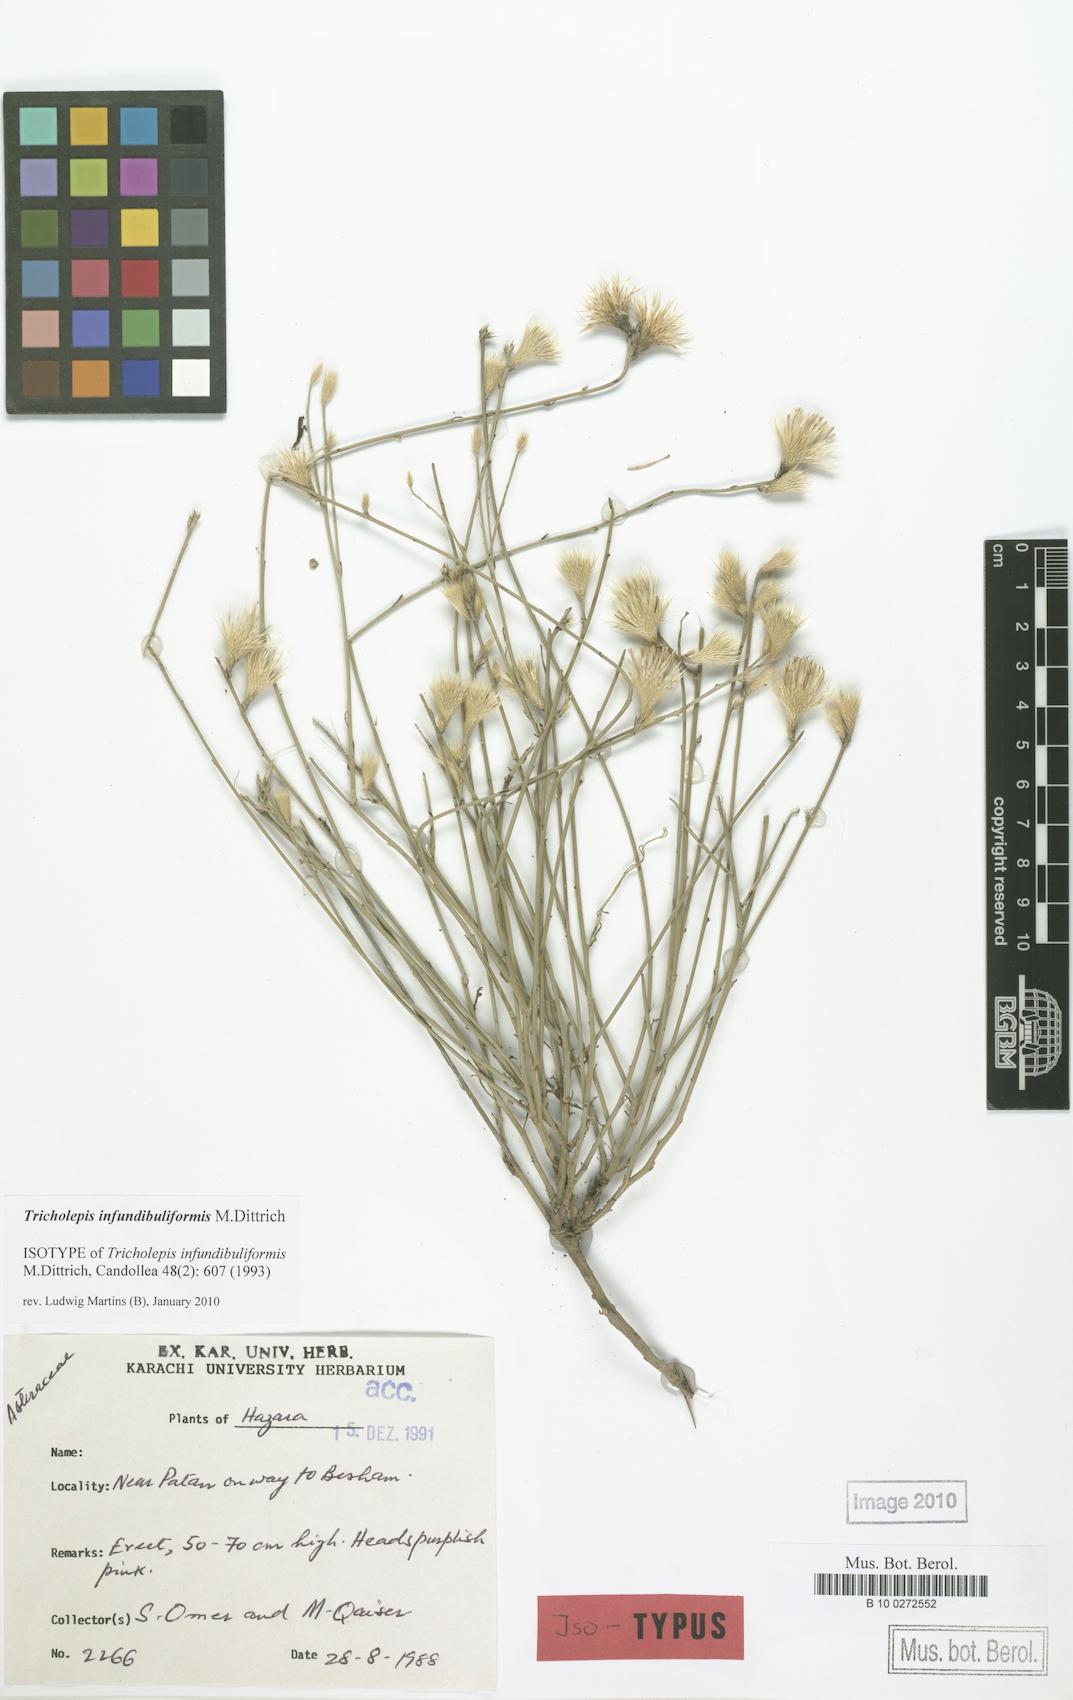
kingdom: Plantae
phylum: Tracheophyta
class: Magnoliopsida
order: Asterales
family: Asteraceae
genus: Tricholepis
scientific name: Tricholepis infundibuliformis
